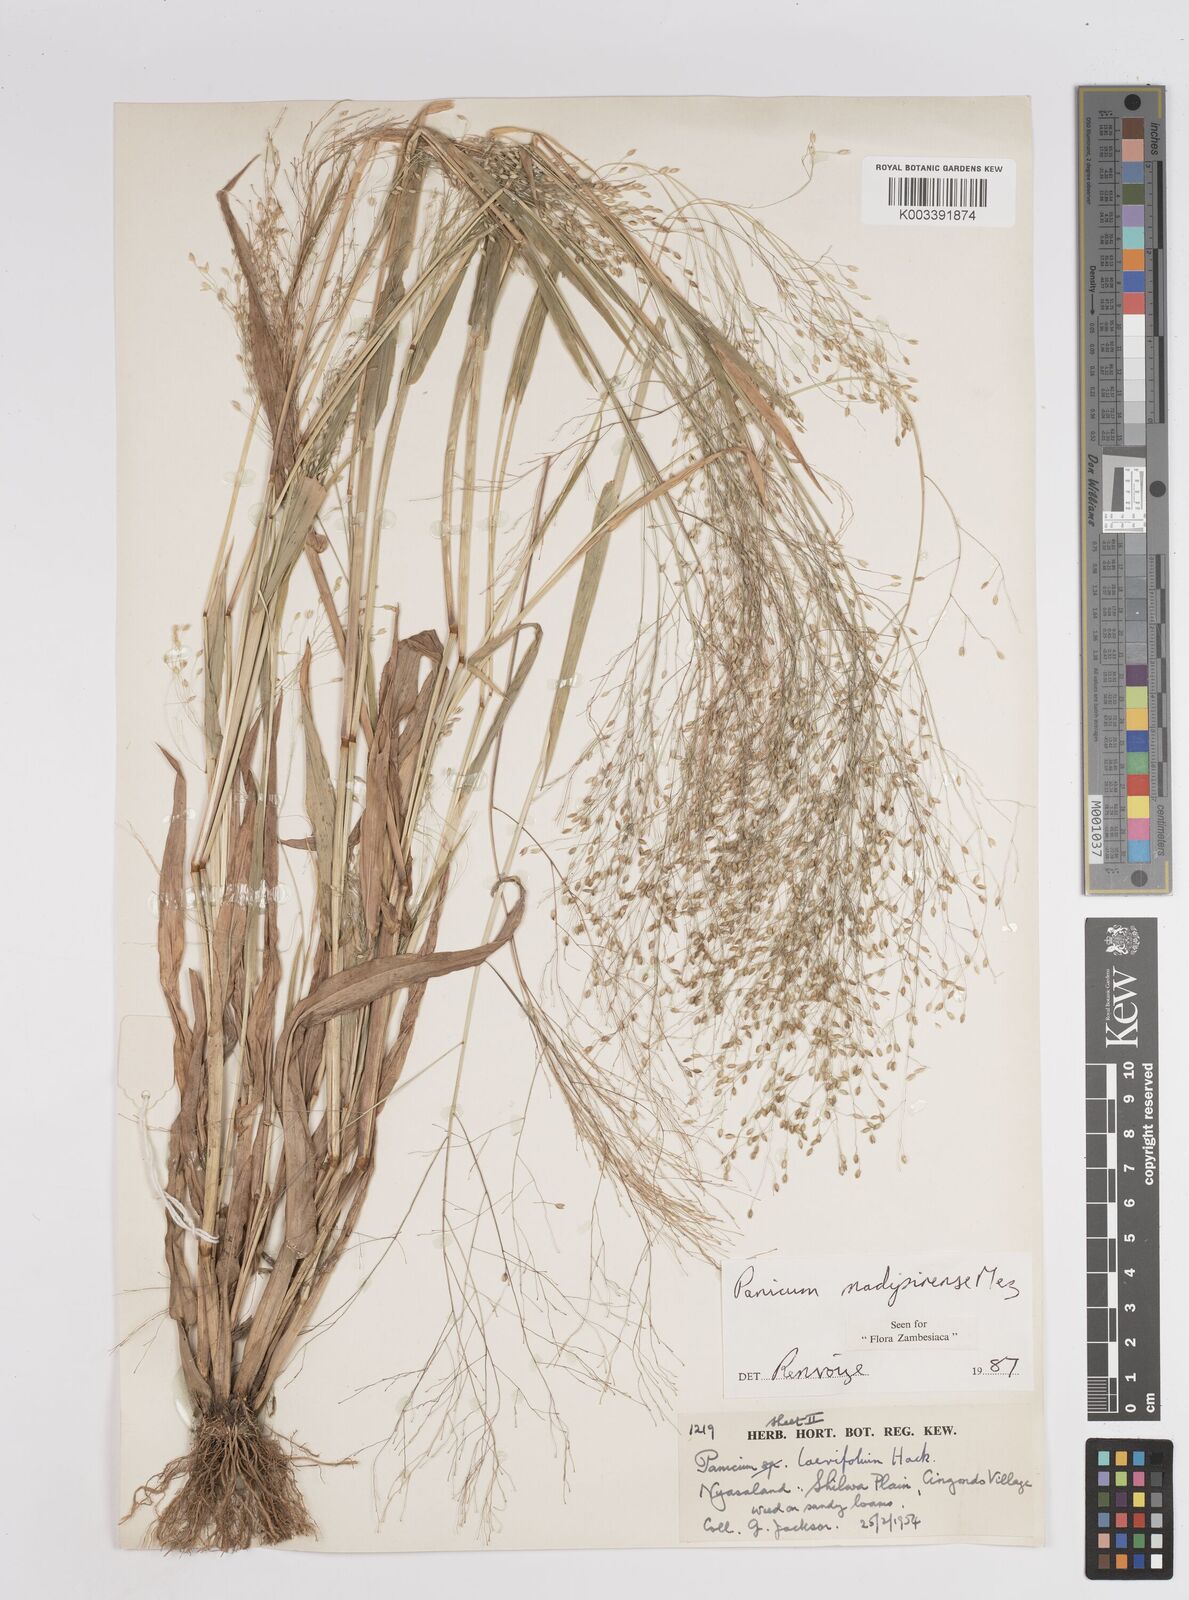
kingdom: Plantae
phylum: Tracheophyta
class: Liliopsida
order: Poales
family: Poaceae
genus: Panicum
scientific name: Panicum madipirense
